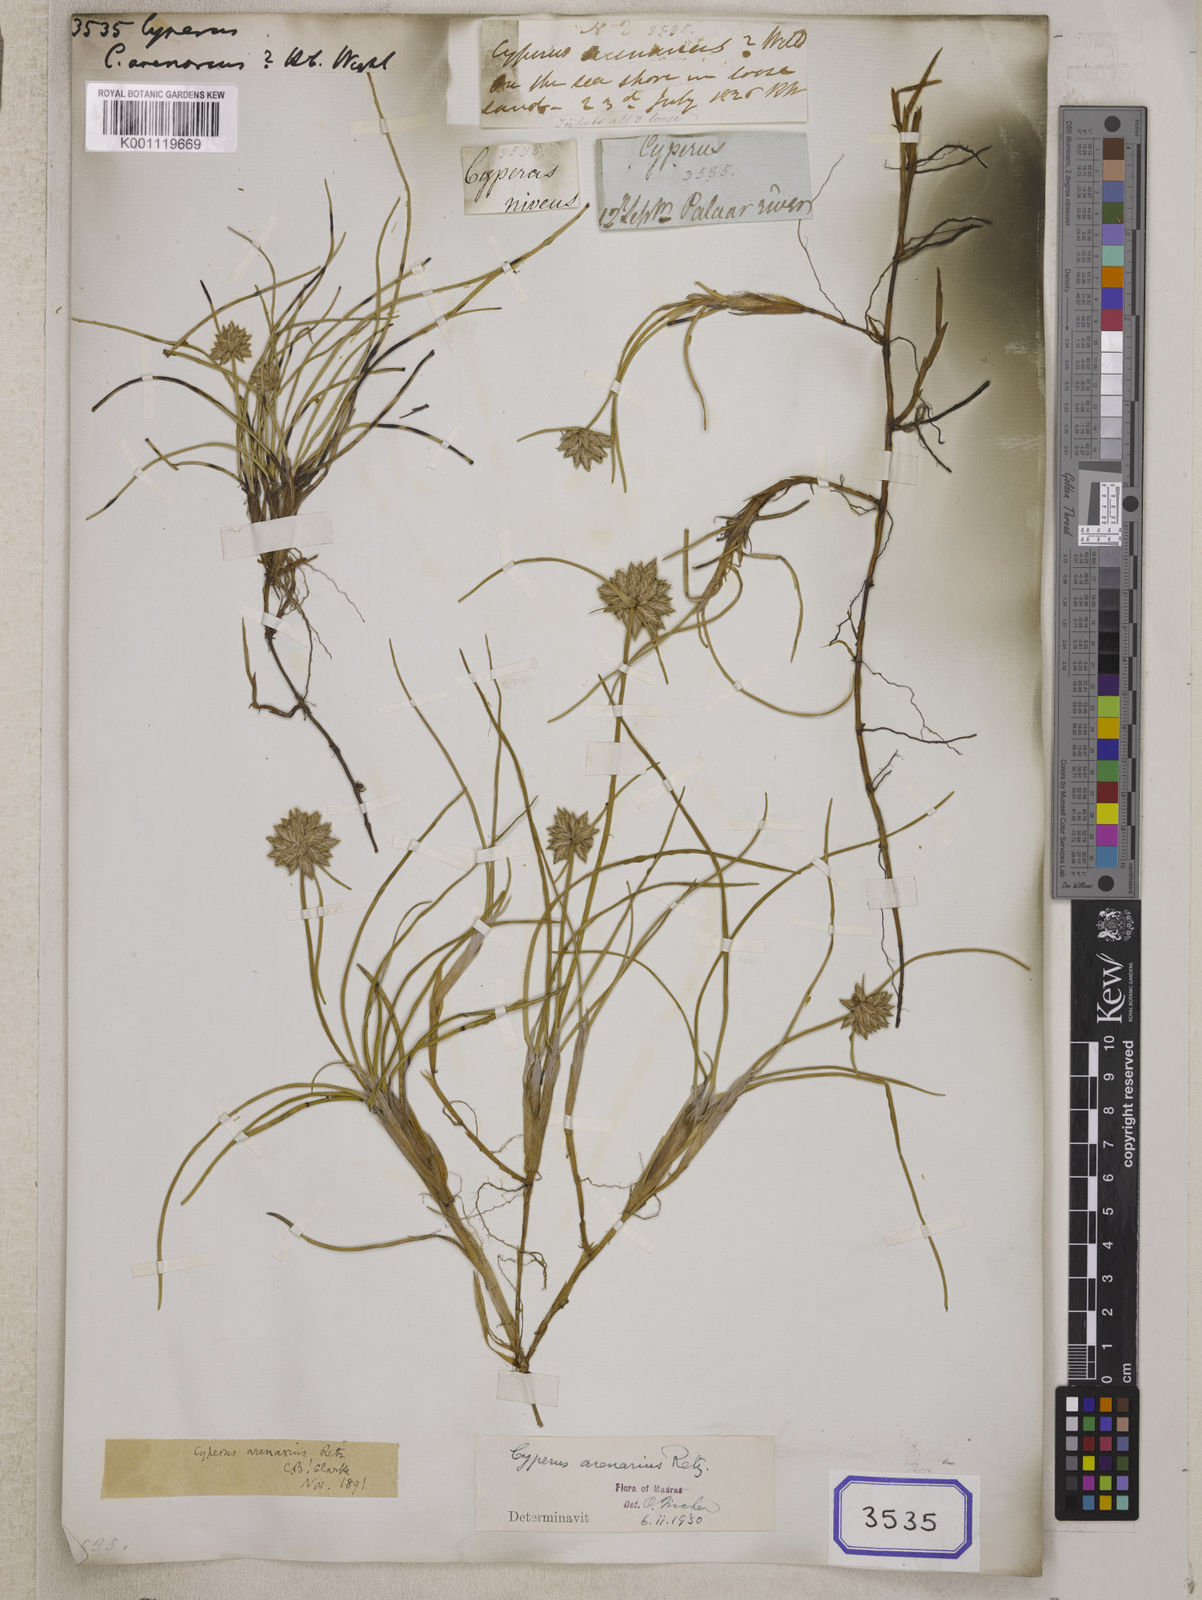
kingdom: Plantae
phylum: Tracheophyta
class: Liliopsida
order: Poales
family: Cyperaceae
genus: Cyperus
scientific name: Cyperus
